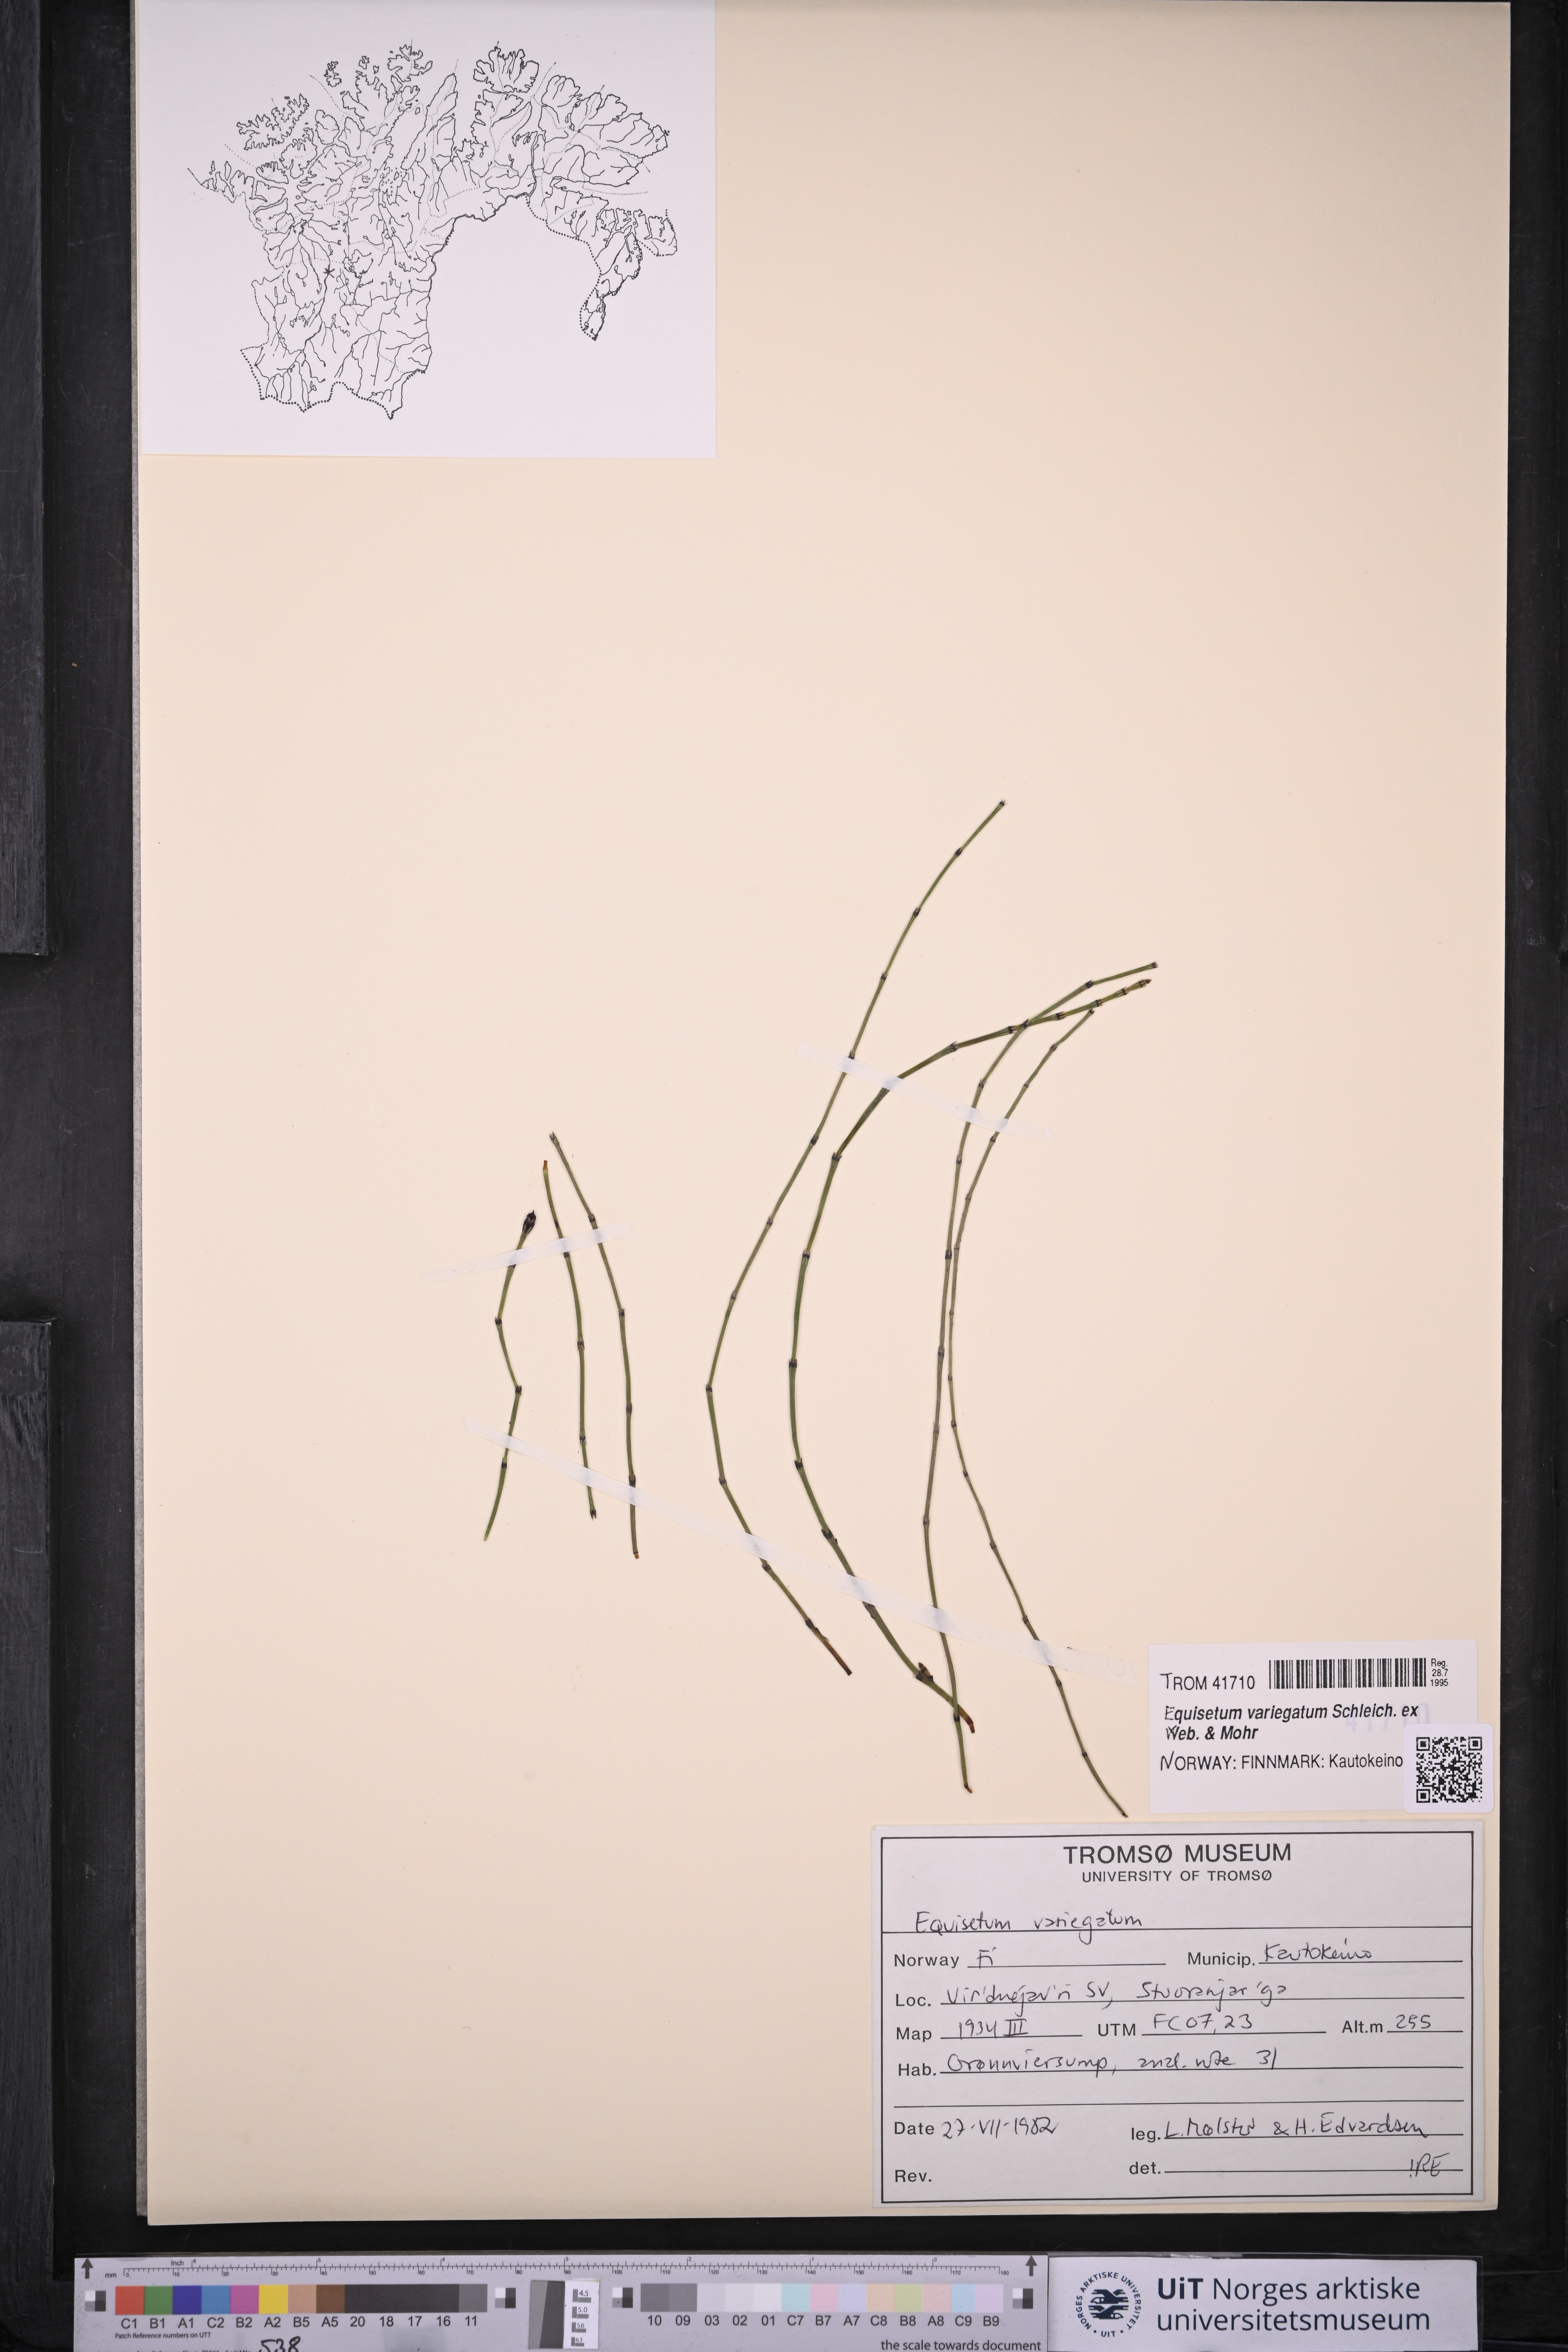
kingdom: Plantae
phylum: Tracheophyta
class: Polypodiopsida
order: Equisetales
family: Equisetaceae
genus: Equisetum
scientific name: Equisetum variegatum
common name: Variegated horsetail
